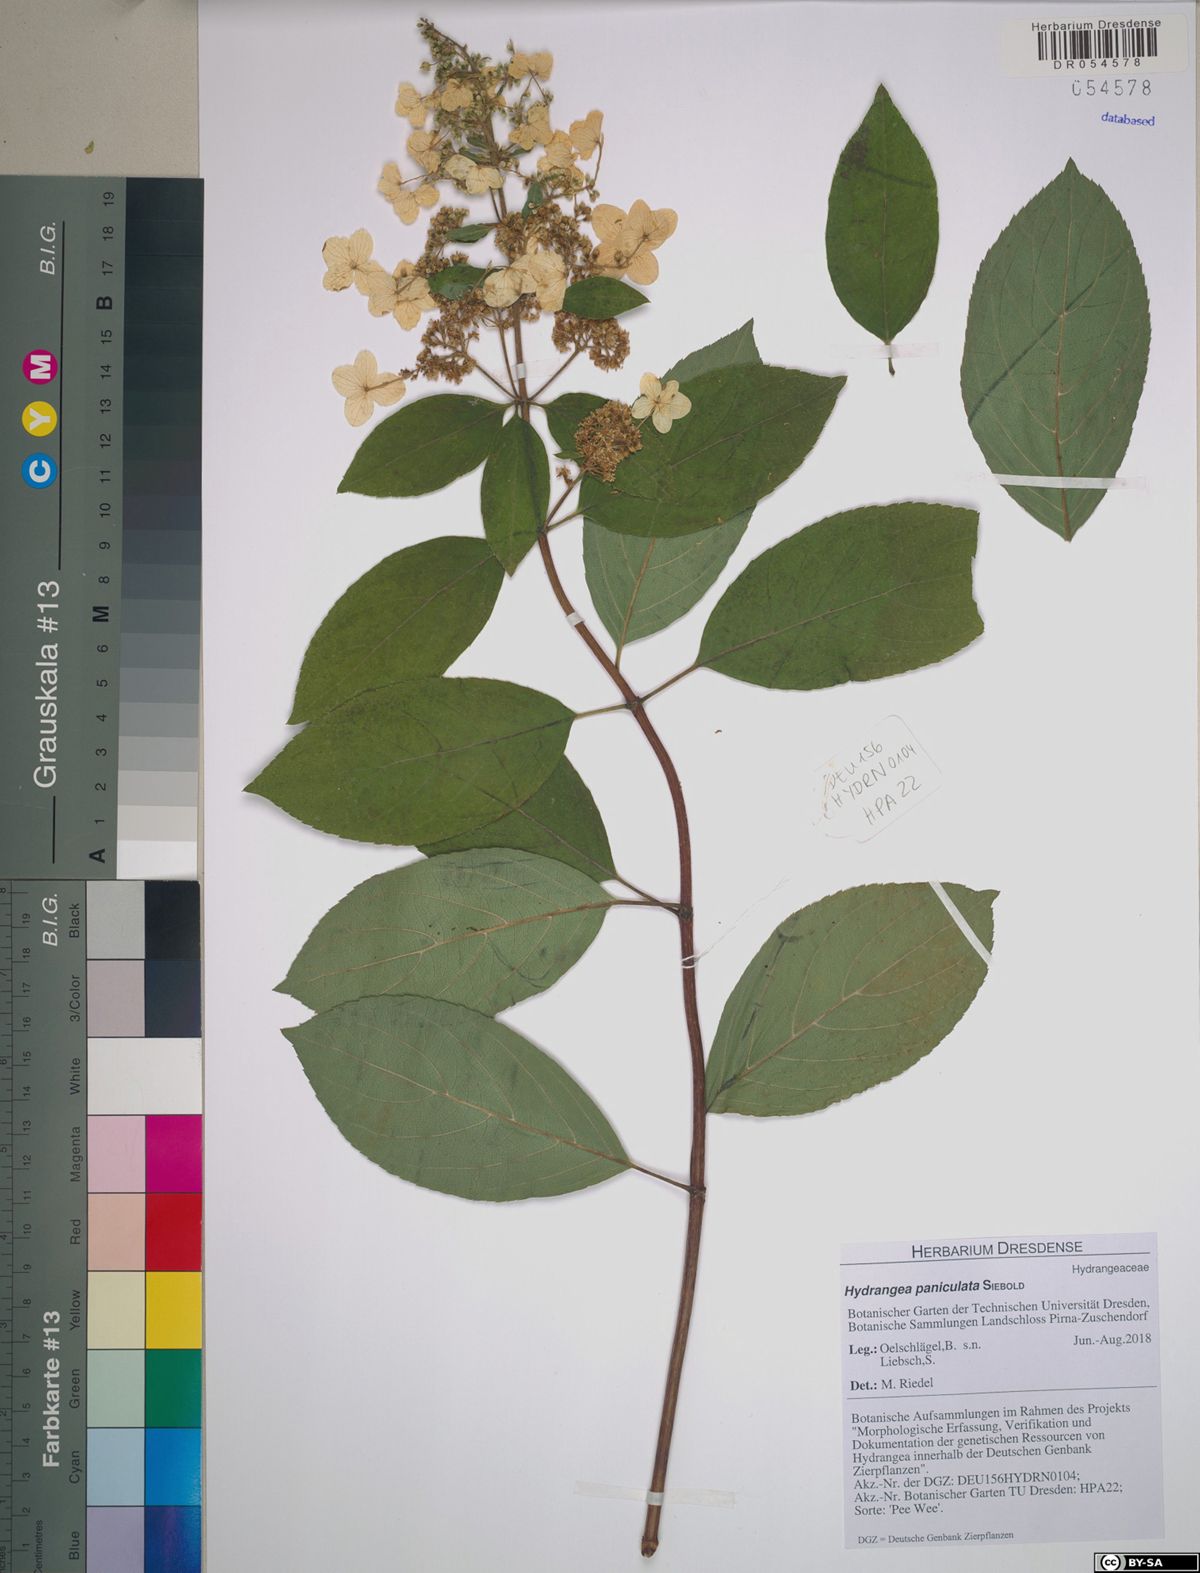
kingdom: Plantae
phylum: Tracheophyta
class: Magnoliopsida
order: Cornales
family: Hydrangeaceae
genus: Hydrangea
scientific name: Hydrangea paniculata
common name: Panicled hydrangea
